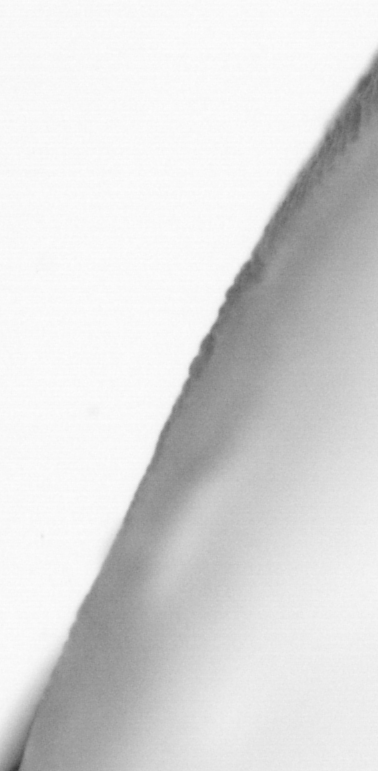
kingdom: Animalia
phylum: Chordata
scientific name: Chordata
